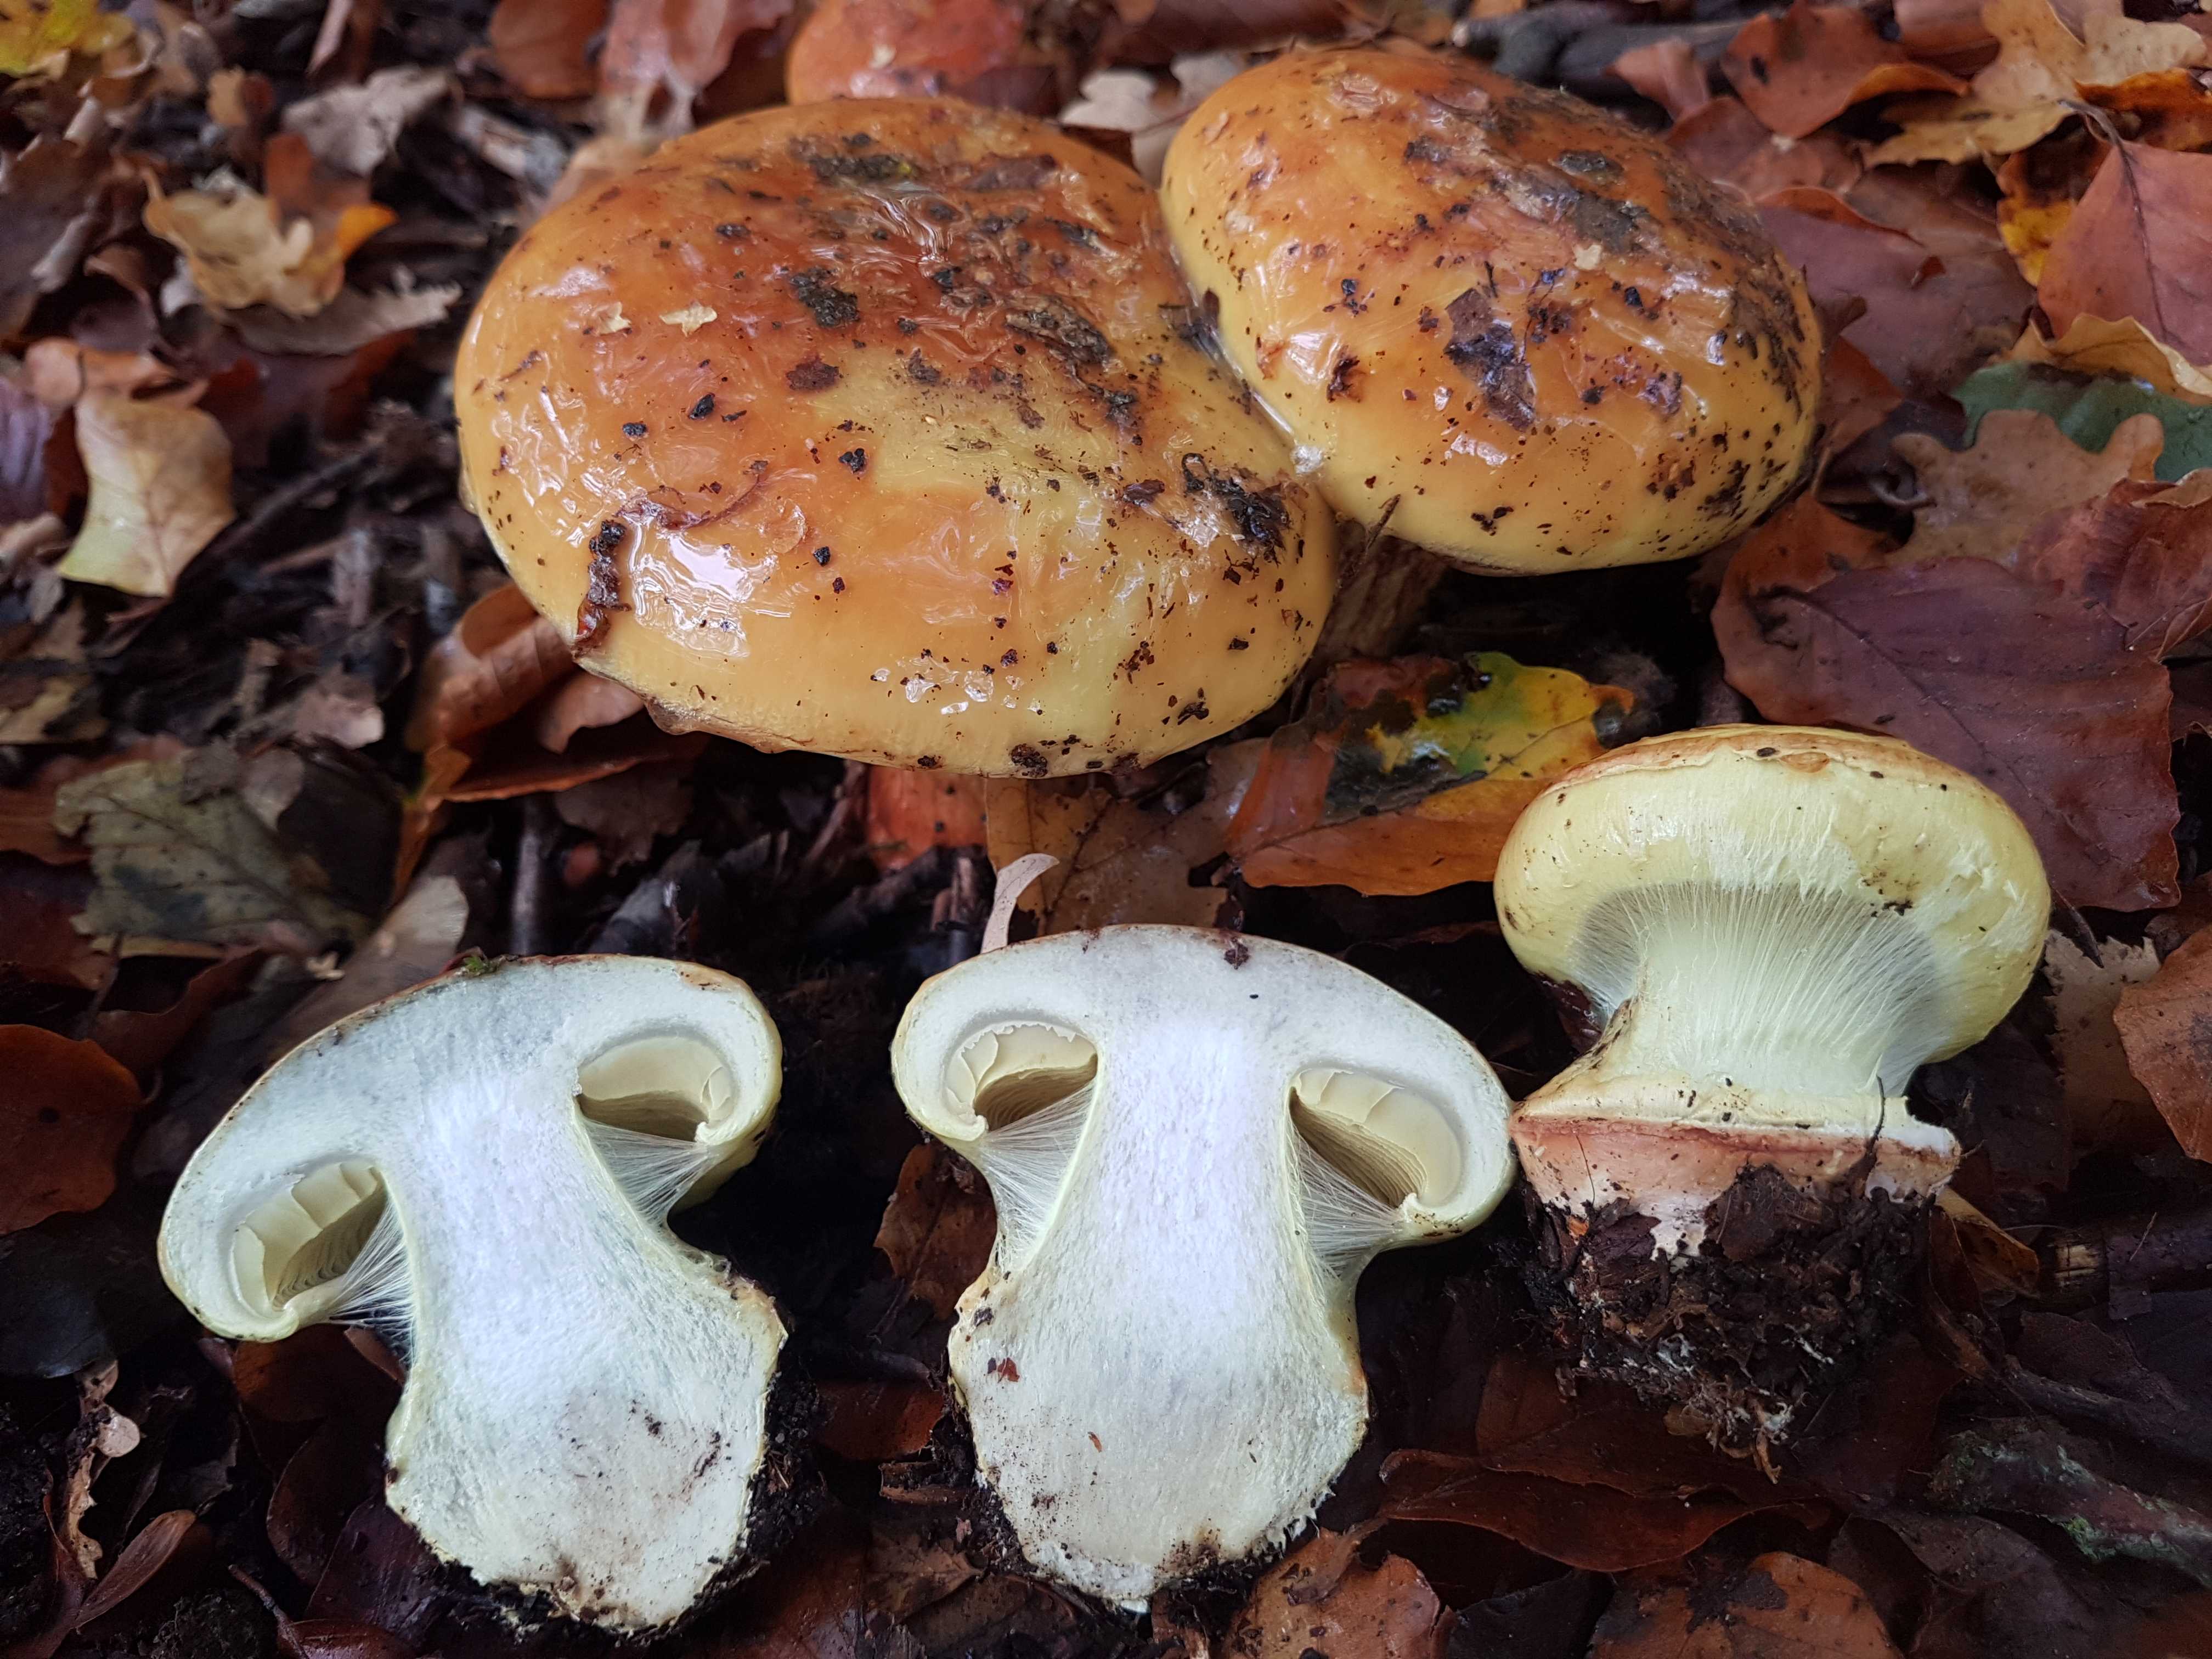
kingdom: Fungi
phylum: Basidiomycota
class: Agaricomycetes
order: Agaricales
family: Cortinariaceae
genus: Calonarius
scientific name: Calonarius elegantissimus
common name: orangegylden slørhat
